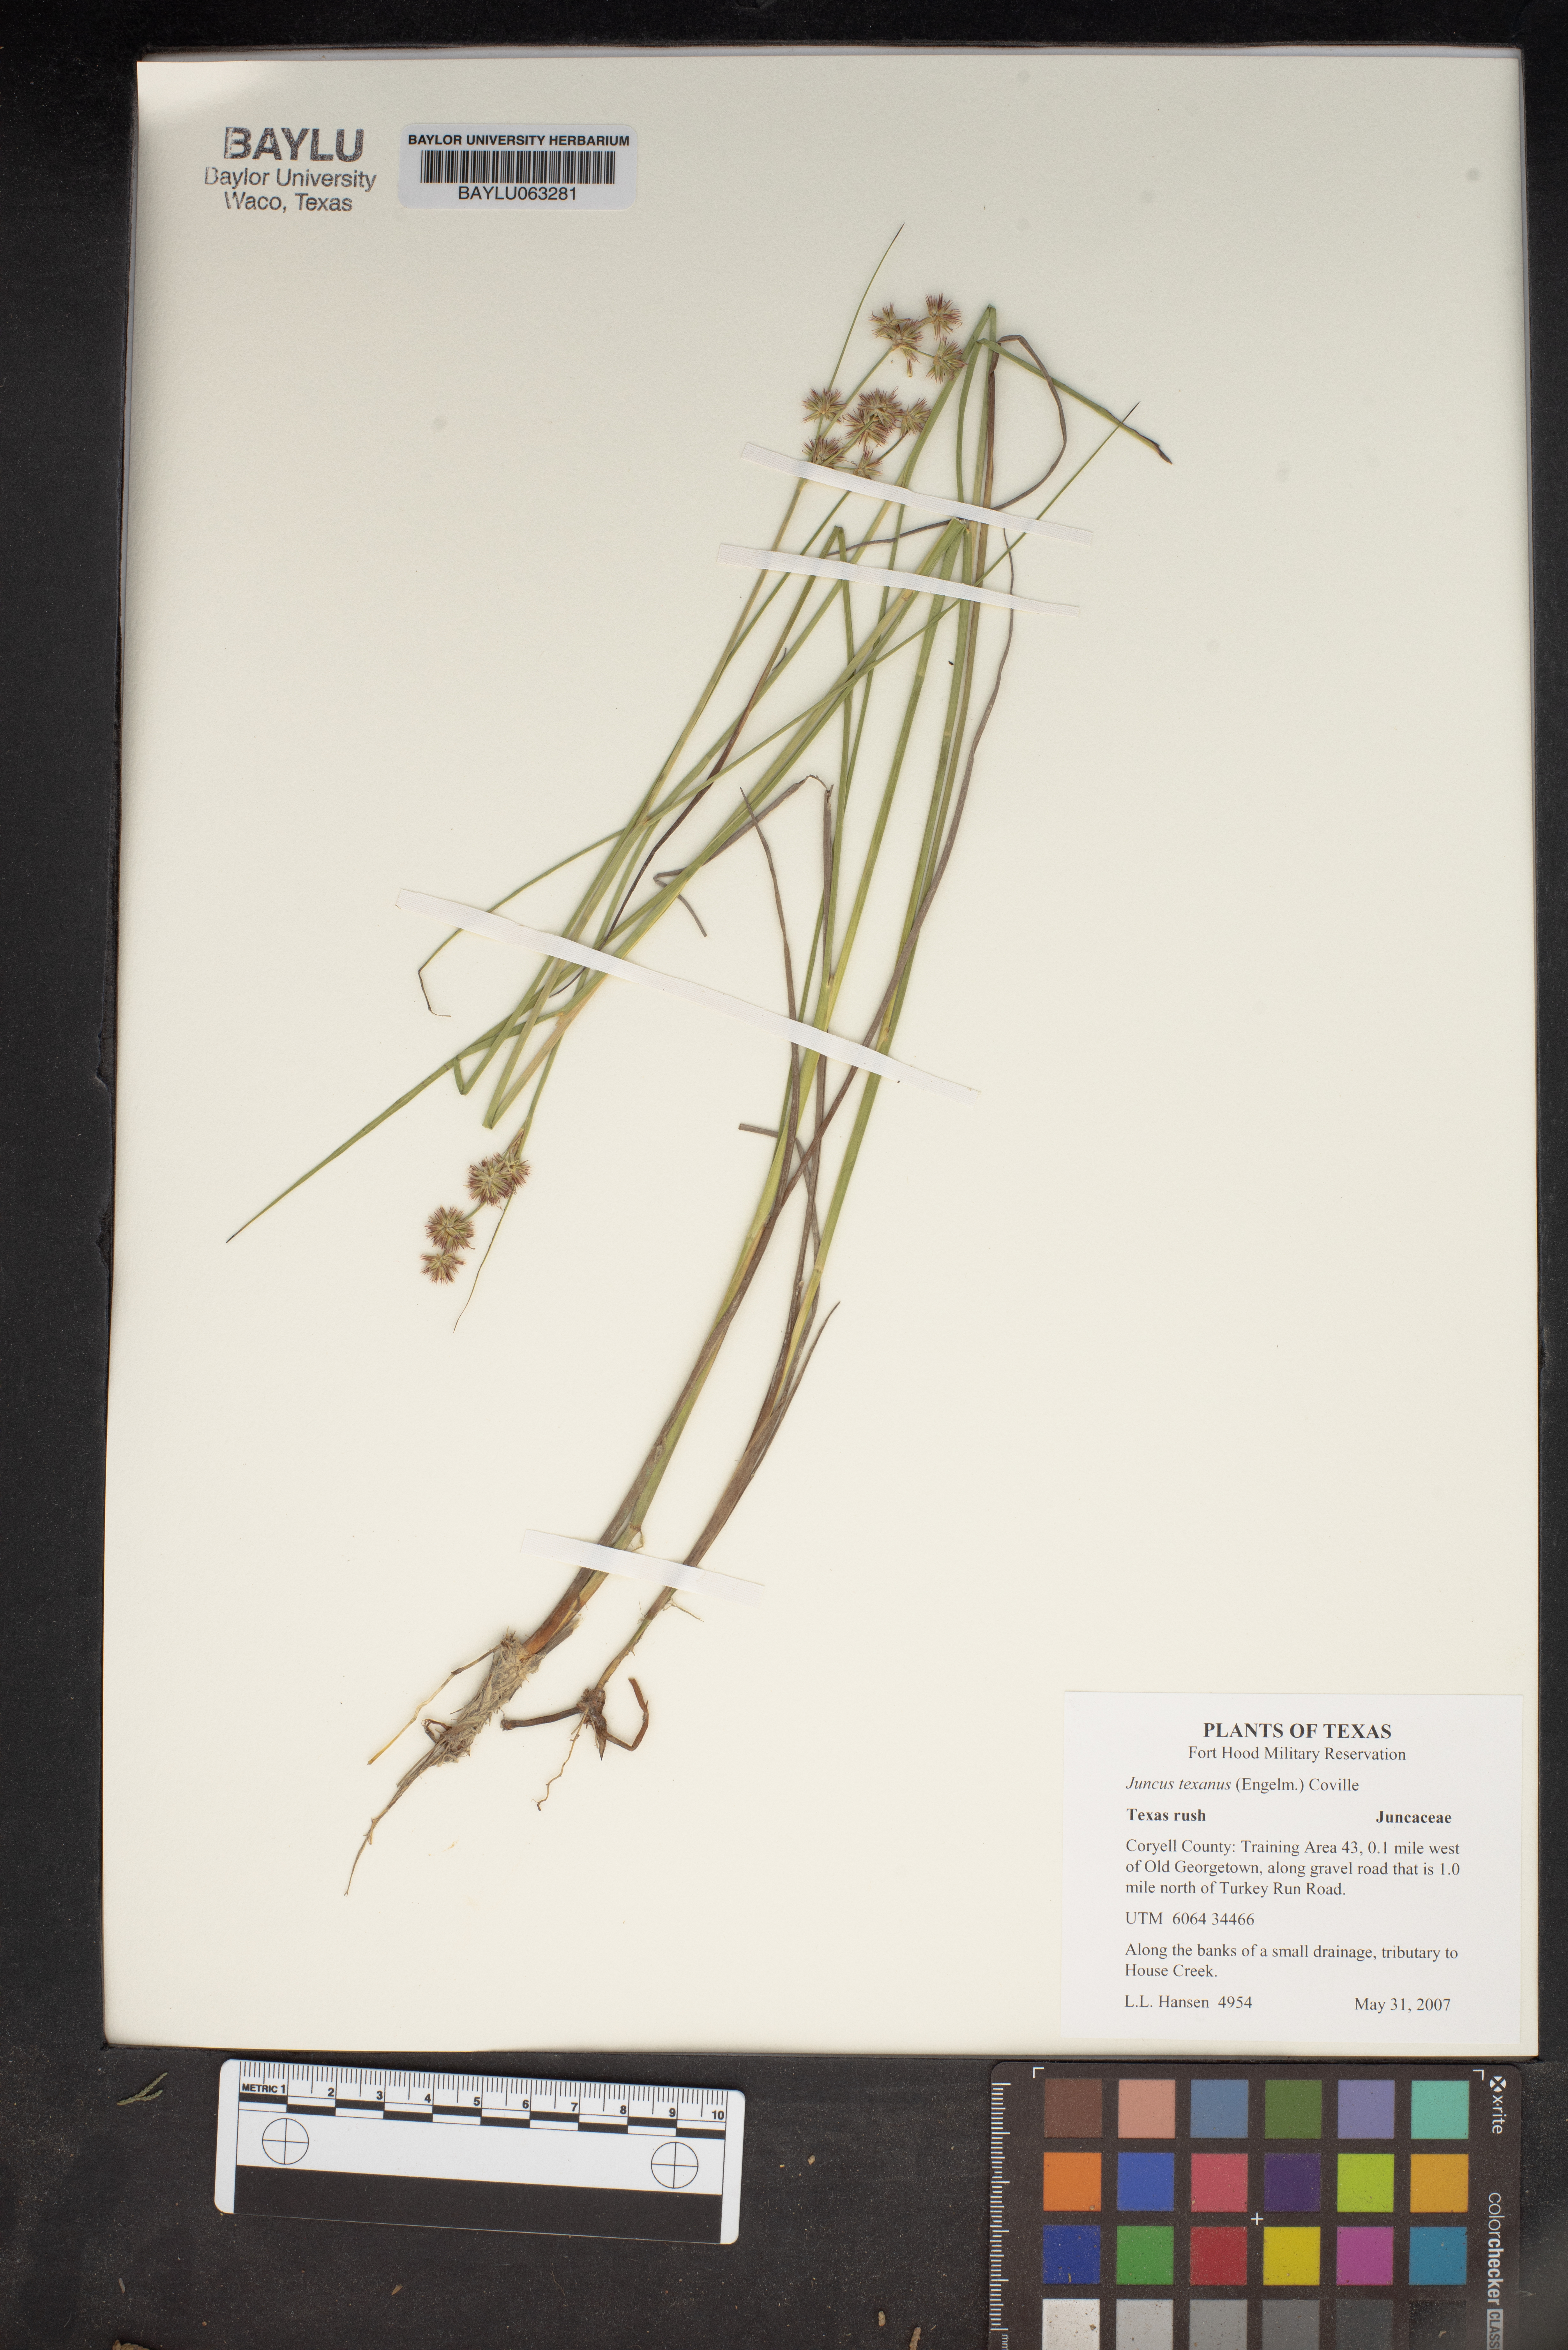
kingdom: Plantae
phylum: Tracheophyta
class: Liliopsida
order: Poales
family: Juncaceae
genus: Juncus
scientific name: Juncus texanus
